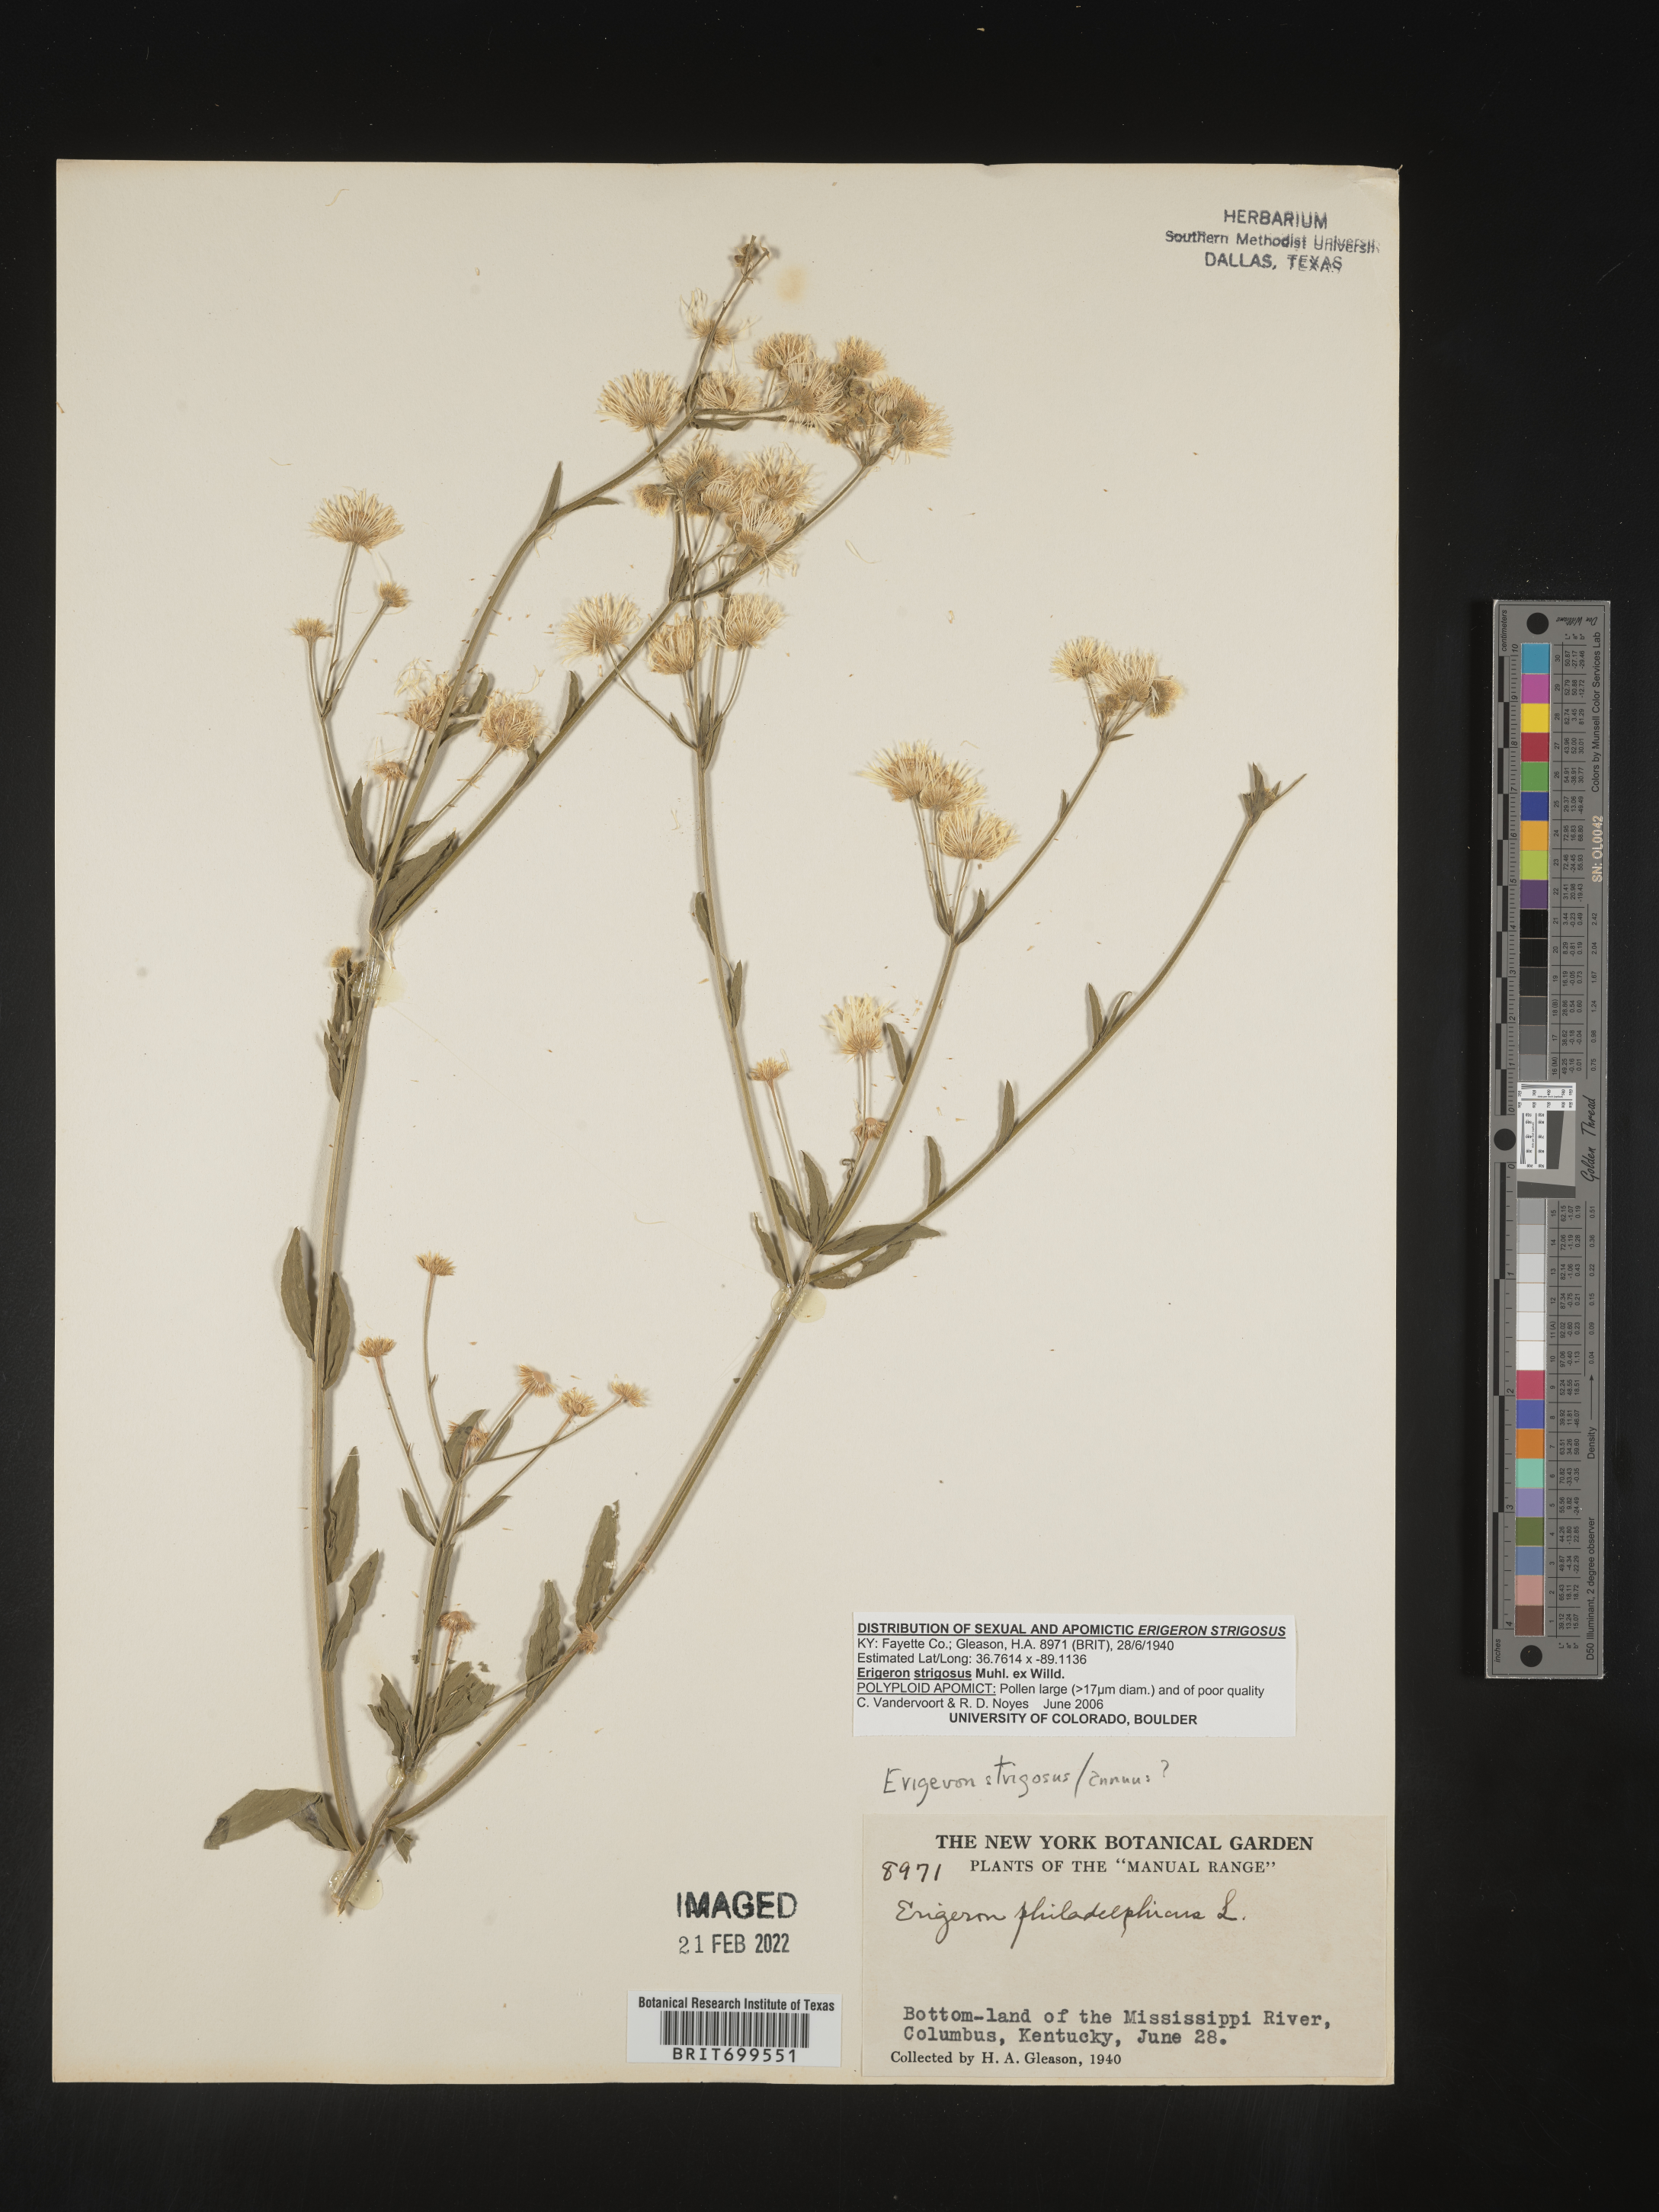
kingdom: Plantae
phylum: Tracheophyta
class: Magnoliopsida
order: Asterales
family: Asteraceae
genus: Erigeron
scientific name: Erigeron strigosus
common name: Common eastern fleabane
